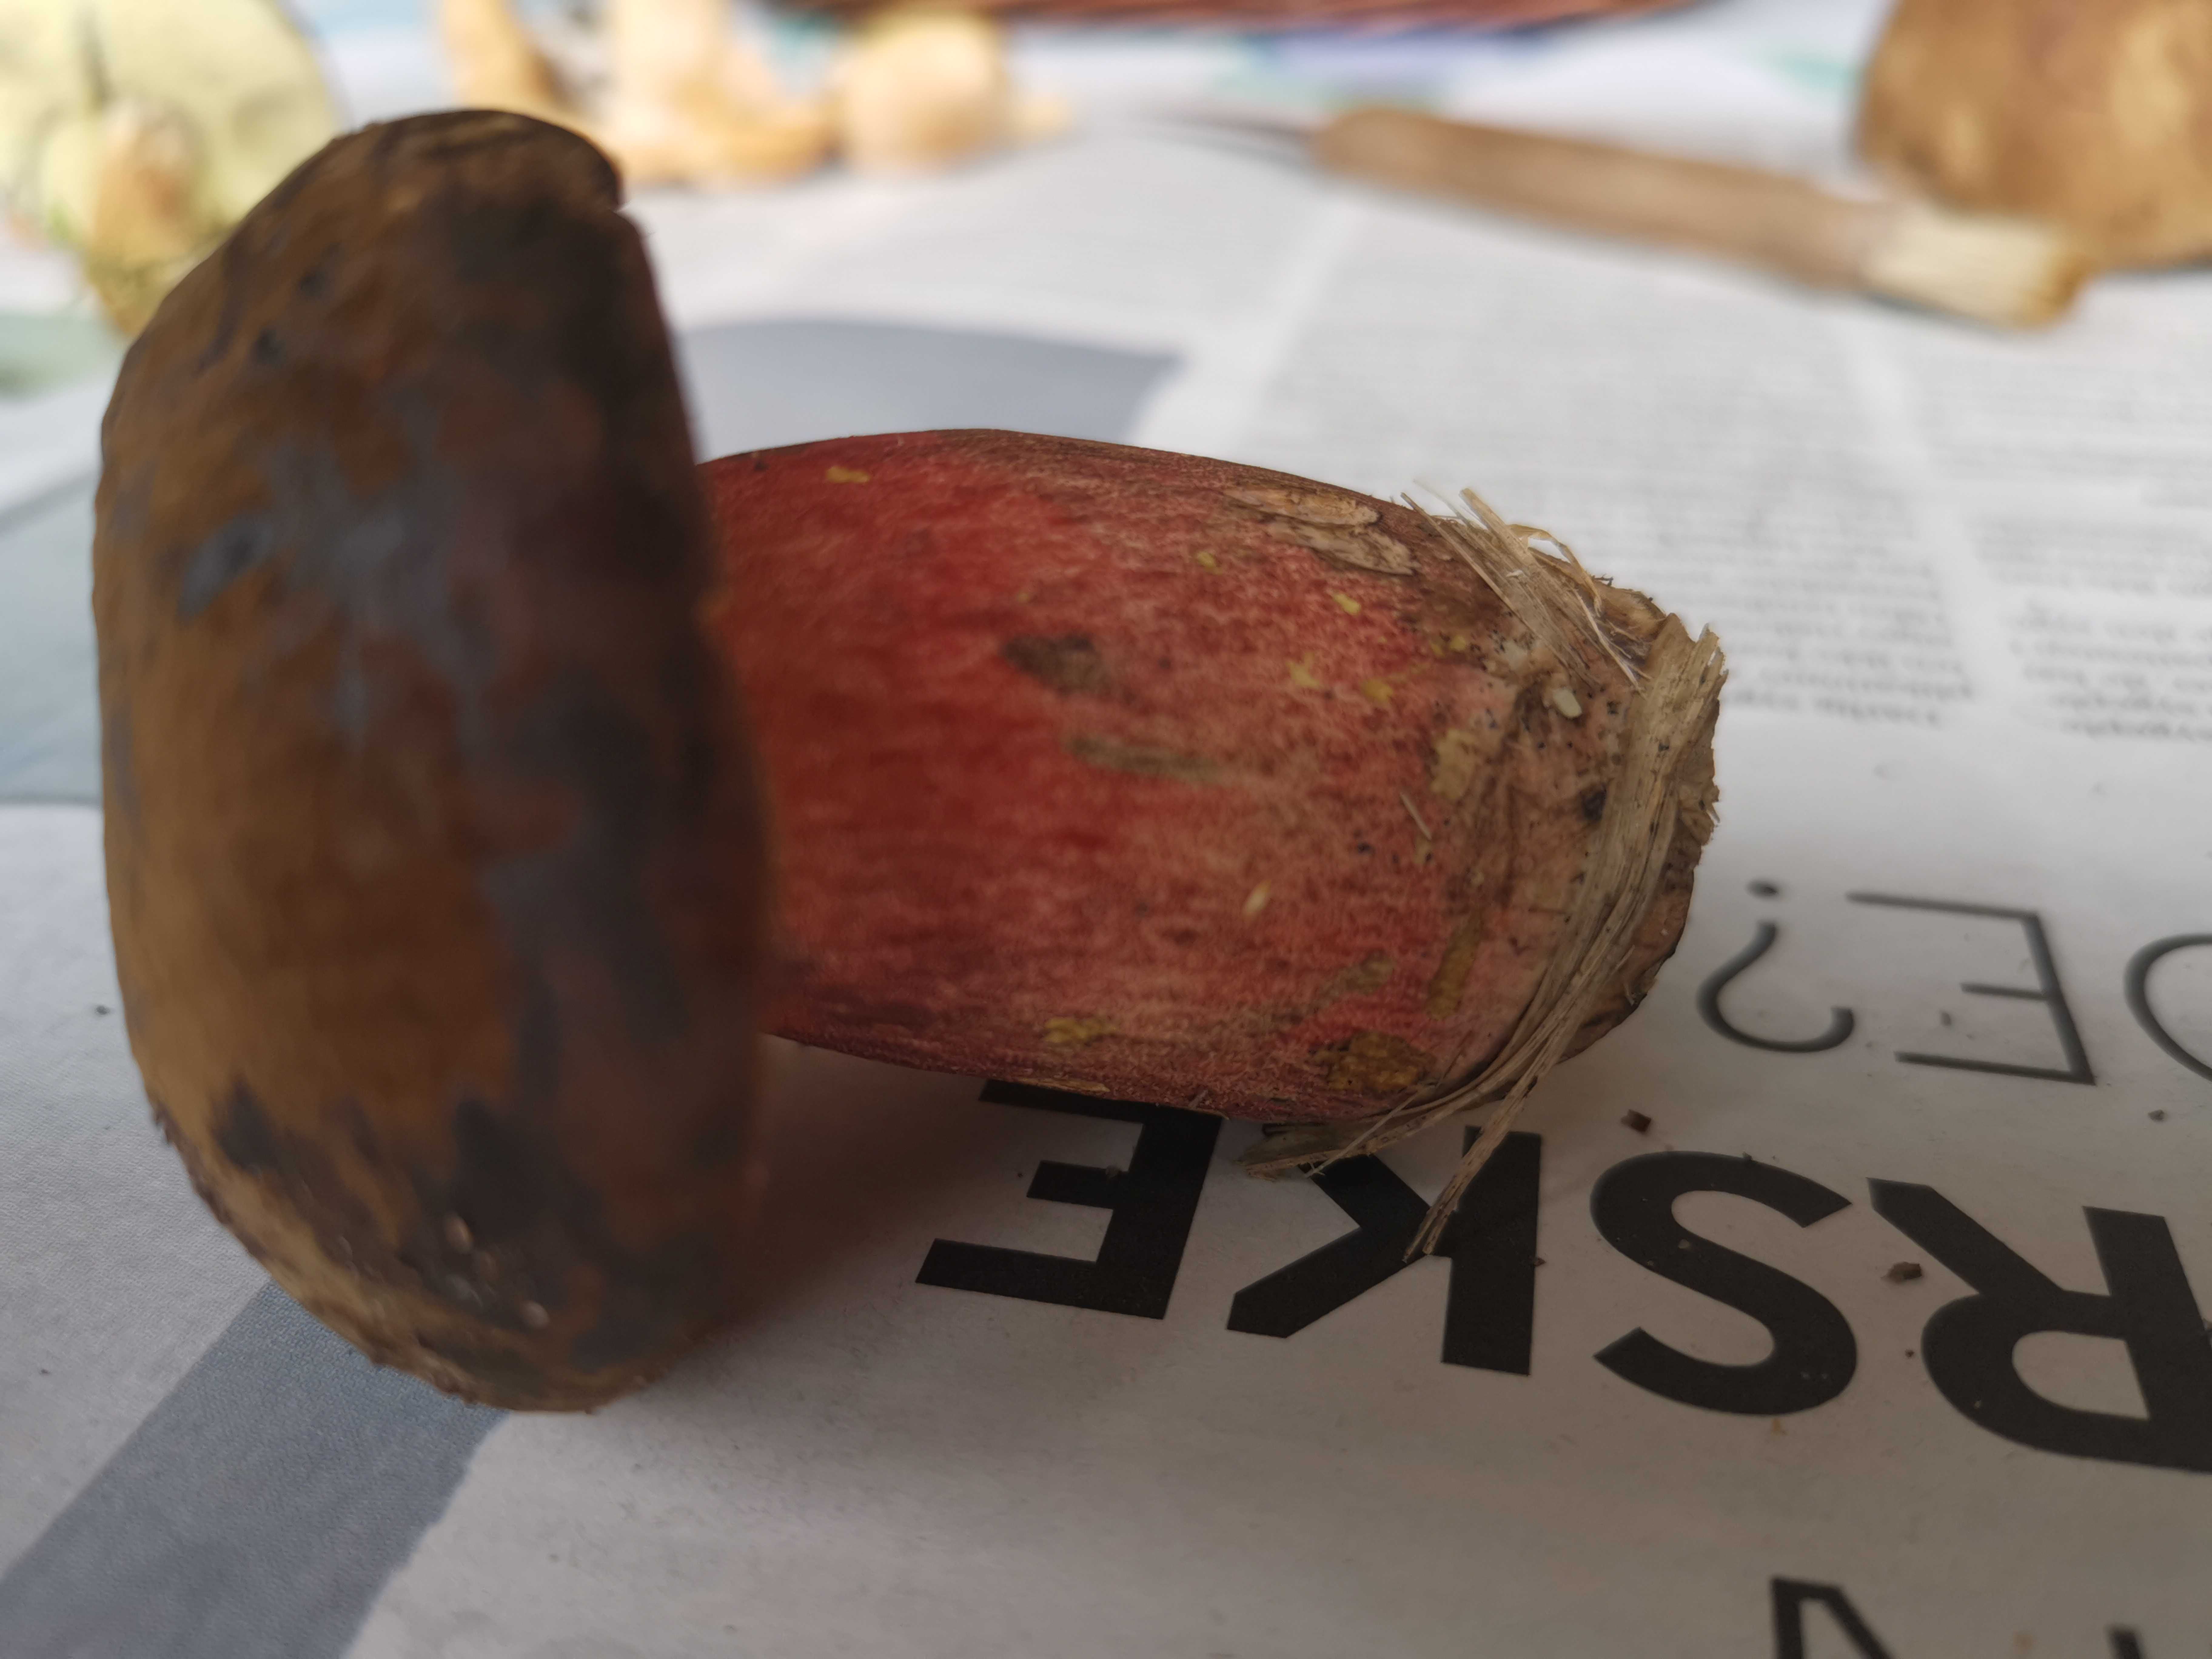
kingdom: Fungi
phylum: Basidiomycota
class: Agaricomycetes
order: Boletales
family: Boletaceae
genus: Neoboletus
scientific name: Neoboletus erythropus
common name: punktstokket indigorørhat
